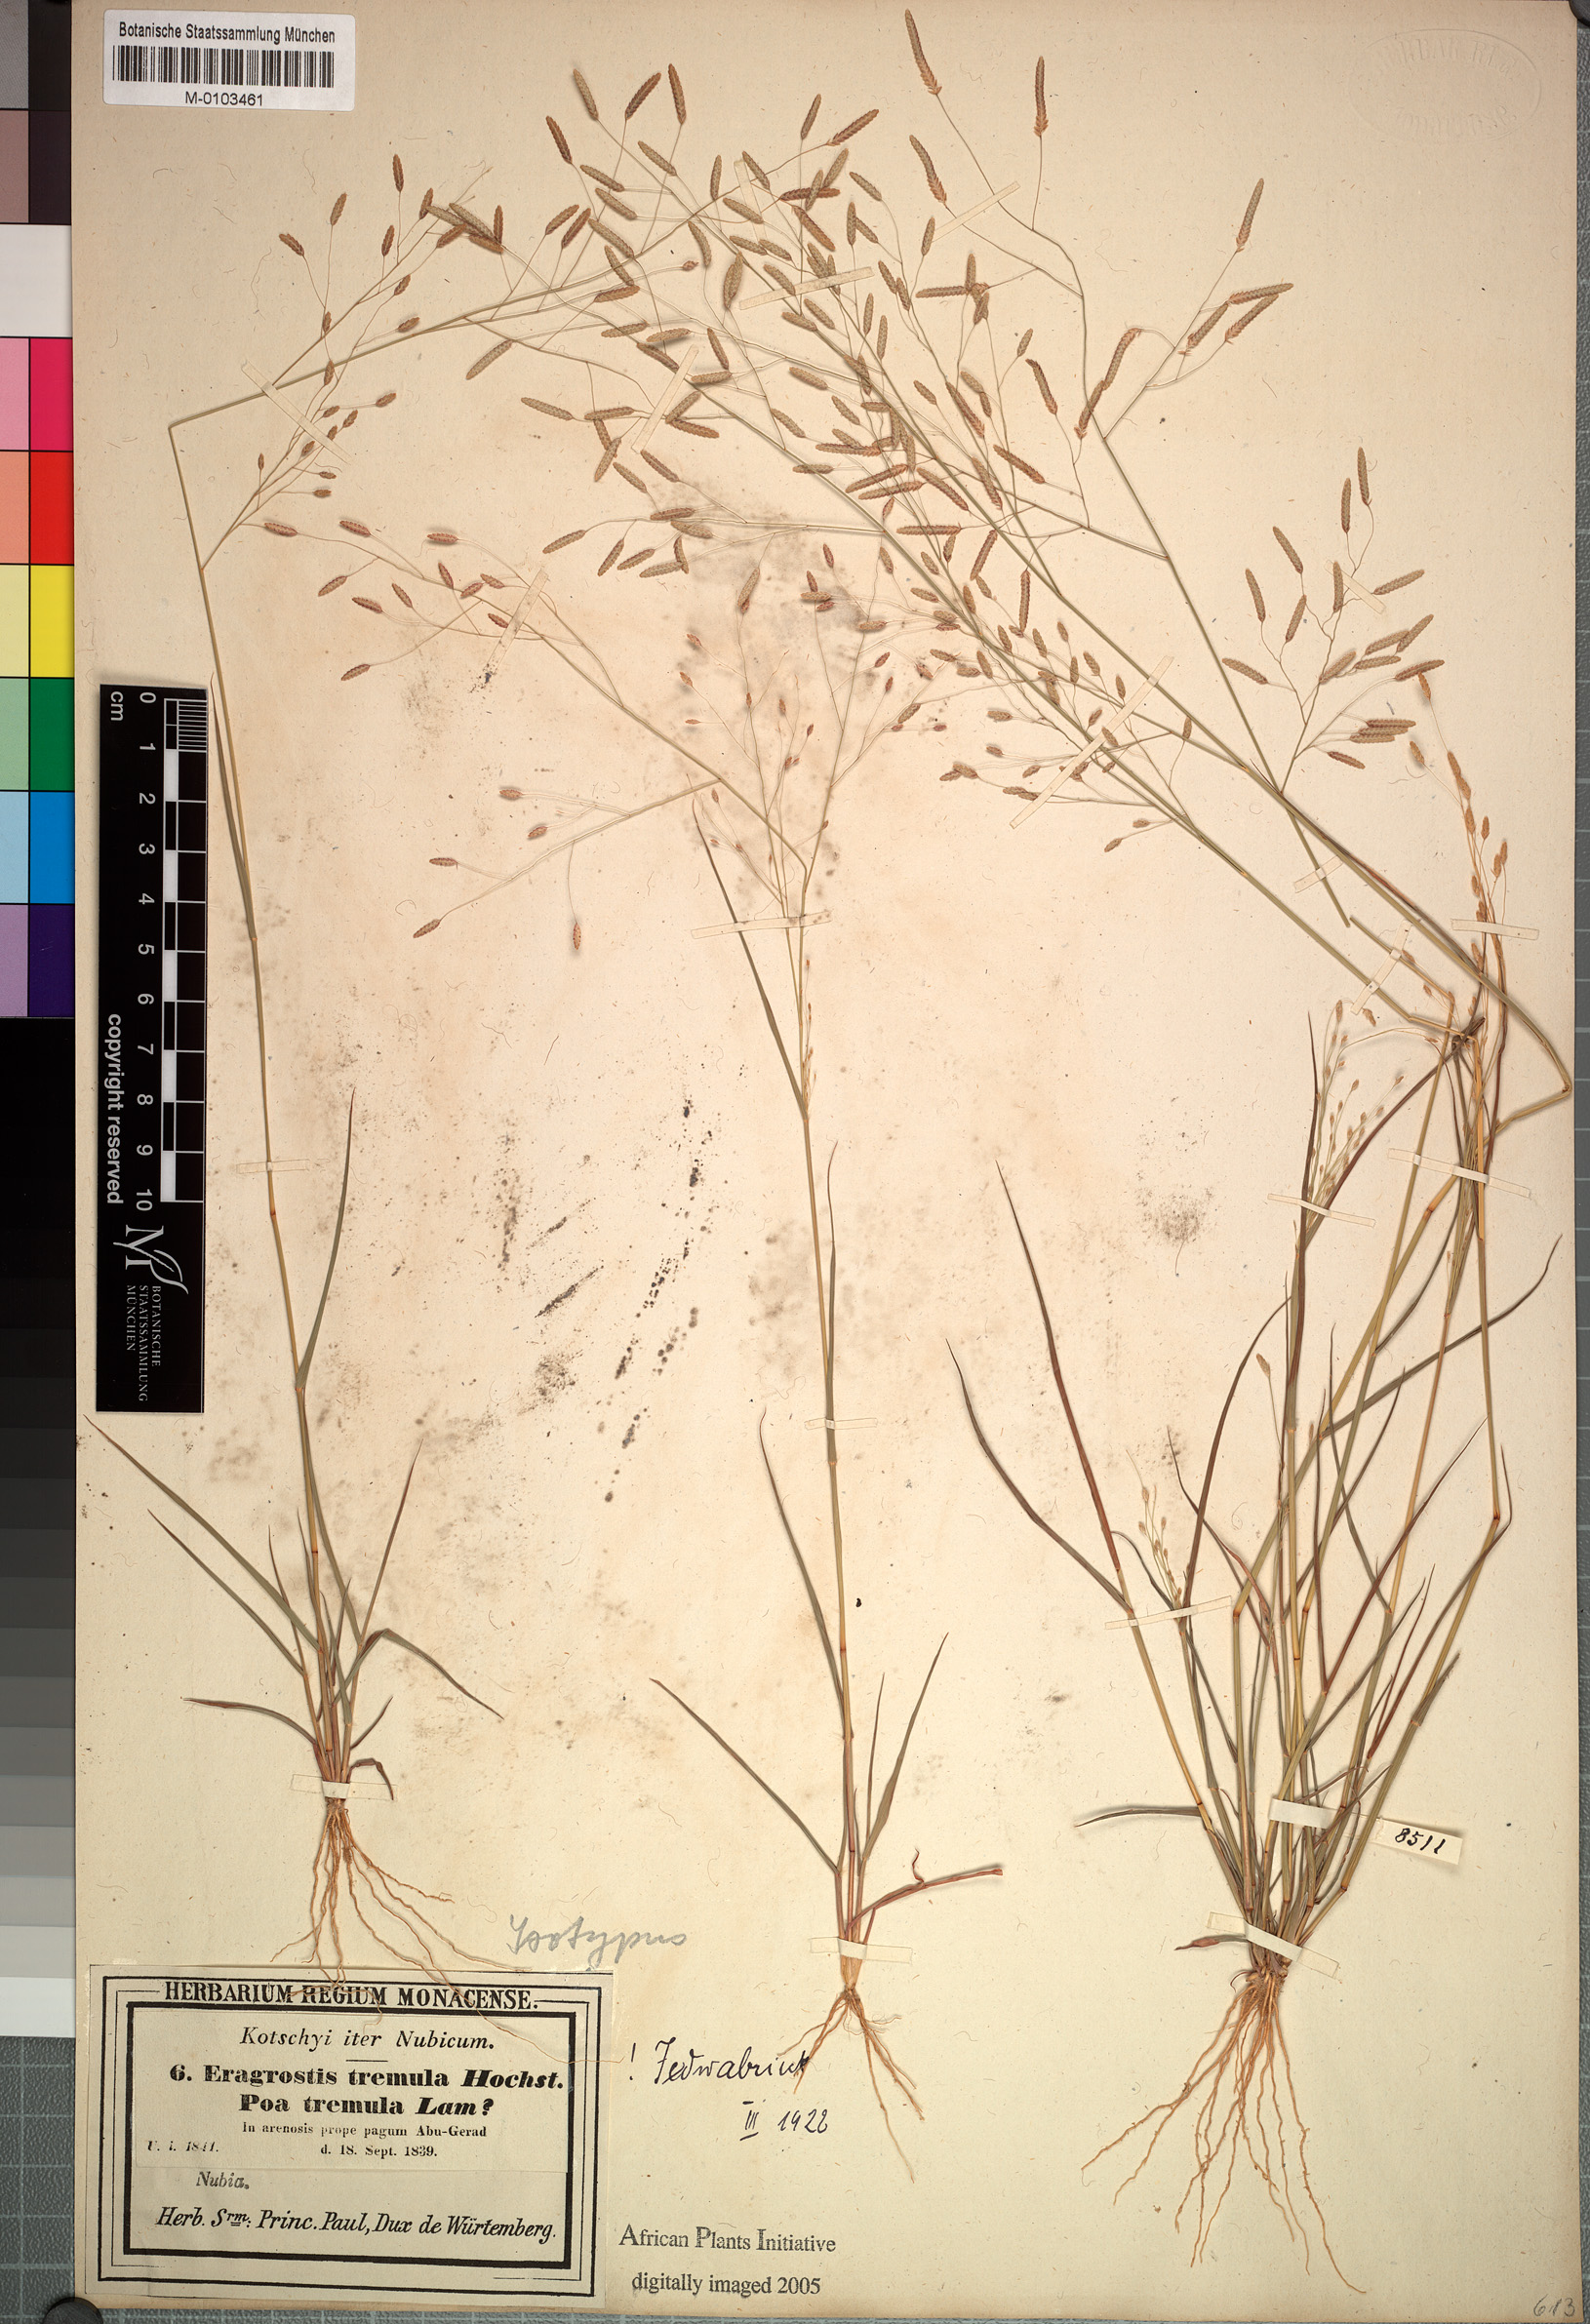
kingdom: Plantae
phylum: Tracheophyta
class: Liliopsida
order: Poales
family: Poaceae
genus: Eragrostis
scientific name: Eragrostis tremula
